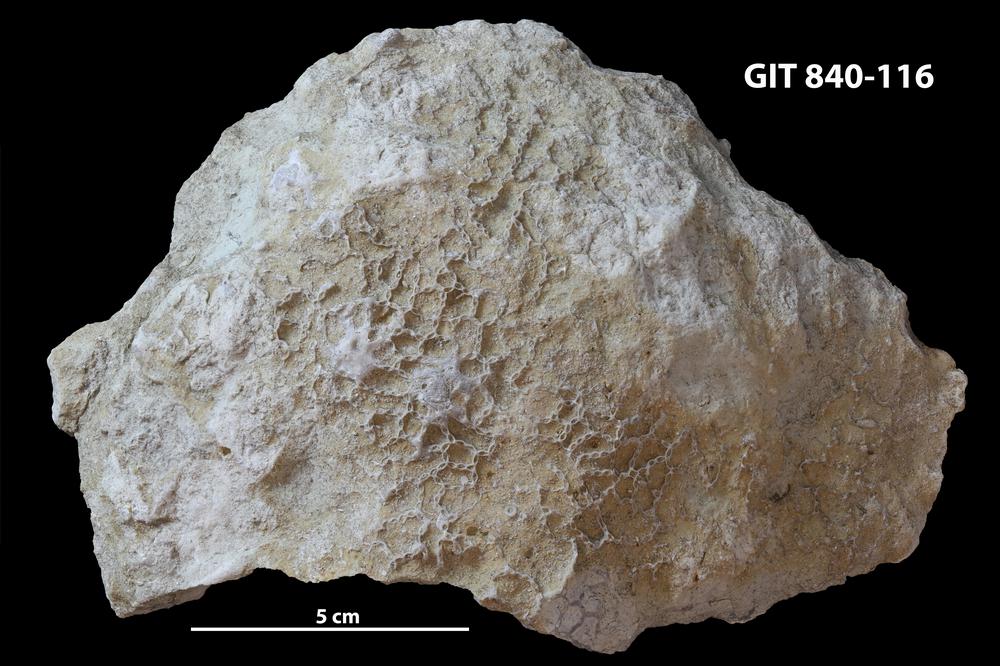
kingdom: Animalia
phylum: Cnidaria
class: Anthozoa
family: Cateniporidae
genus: Catenipora
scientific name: Catenipora
